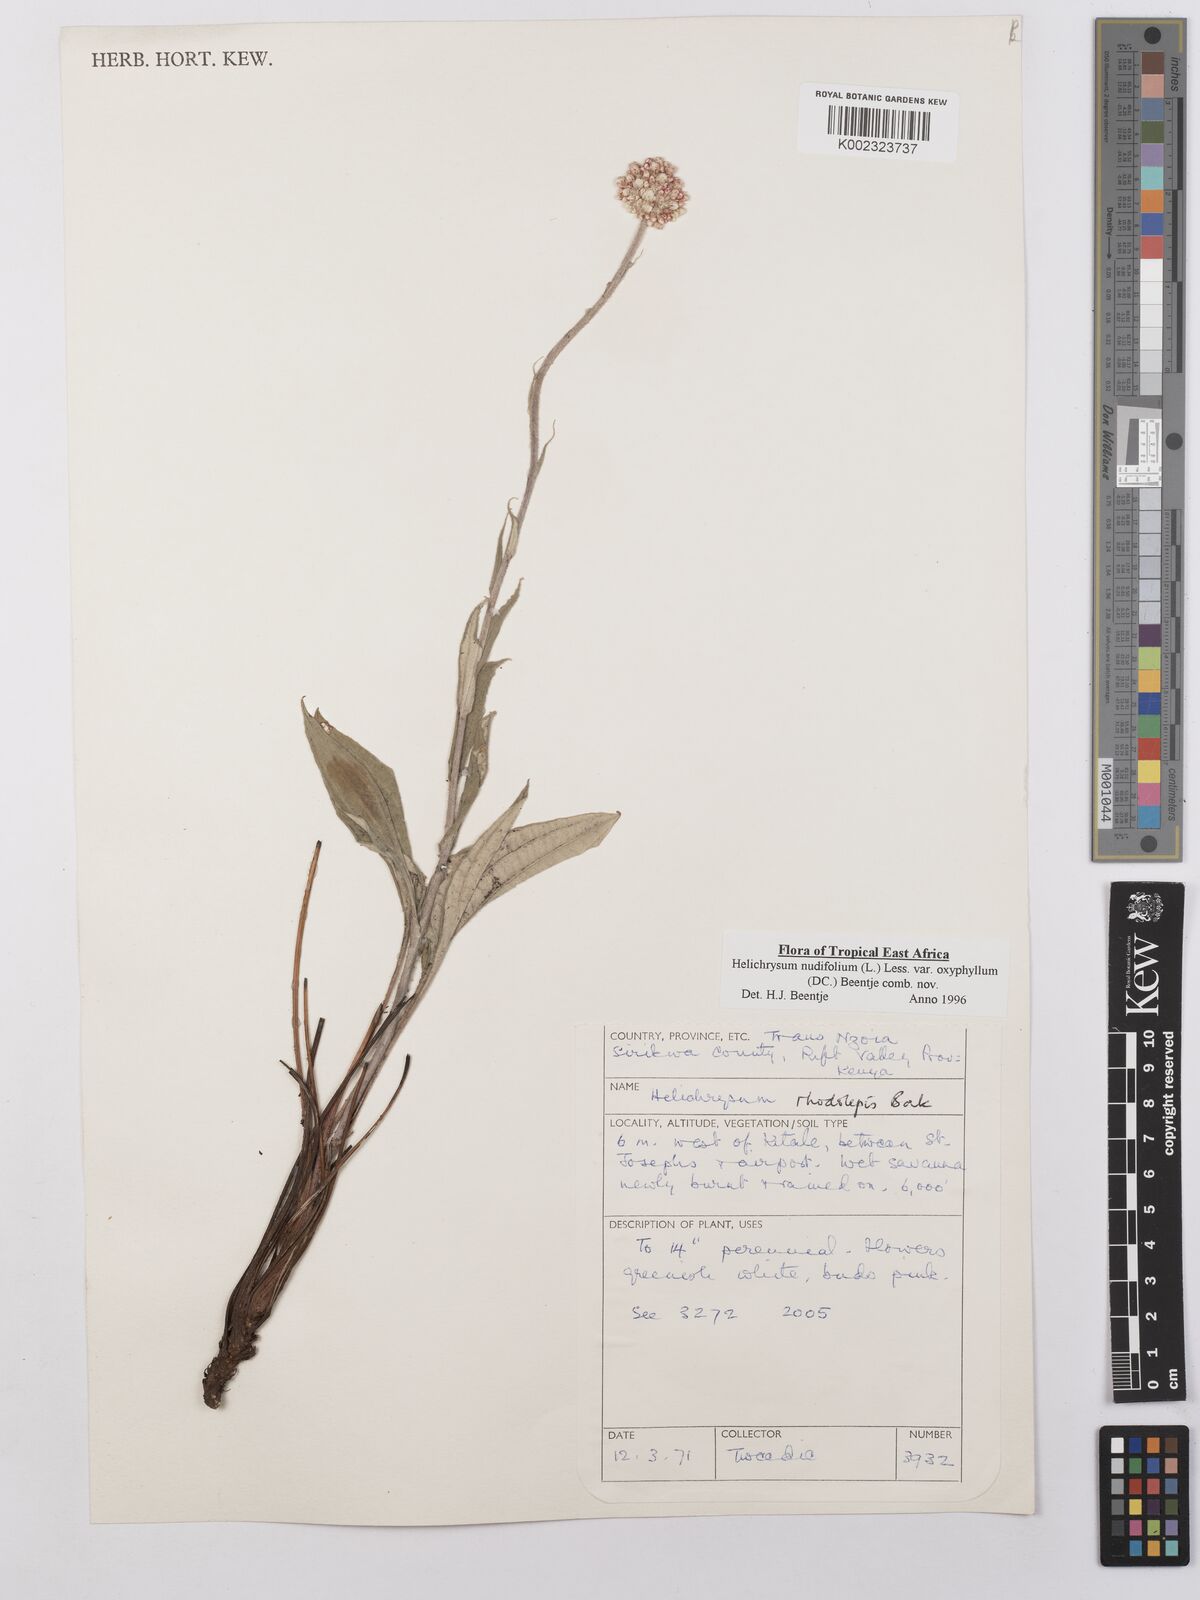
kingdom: Plantae
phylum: Tracheophyta
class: Magnoliopsida
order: Asterales
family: Asteraceae
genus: Helichrysum
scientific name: Helichrysum nudifolium
